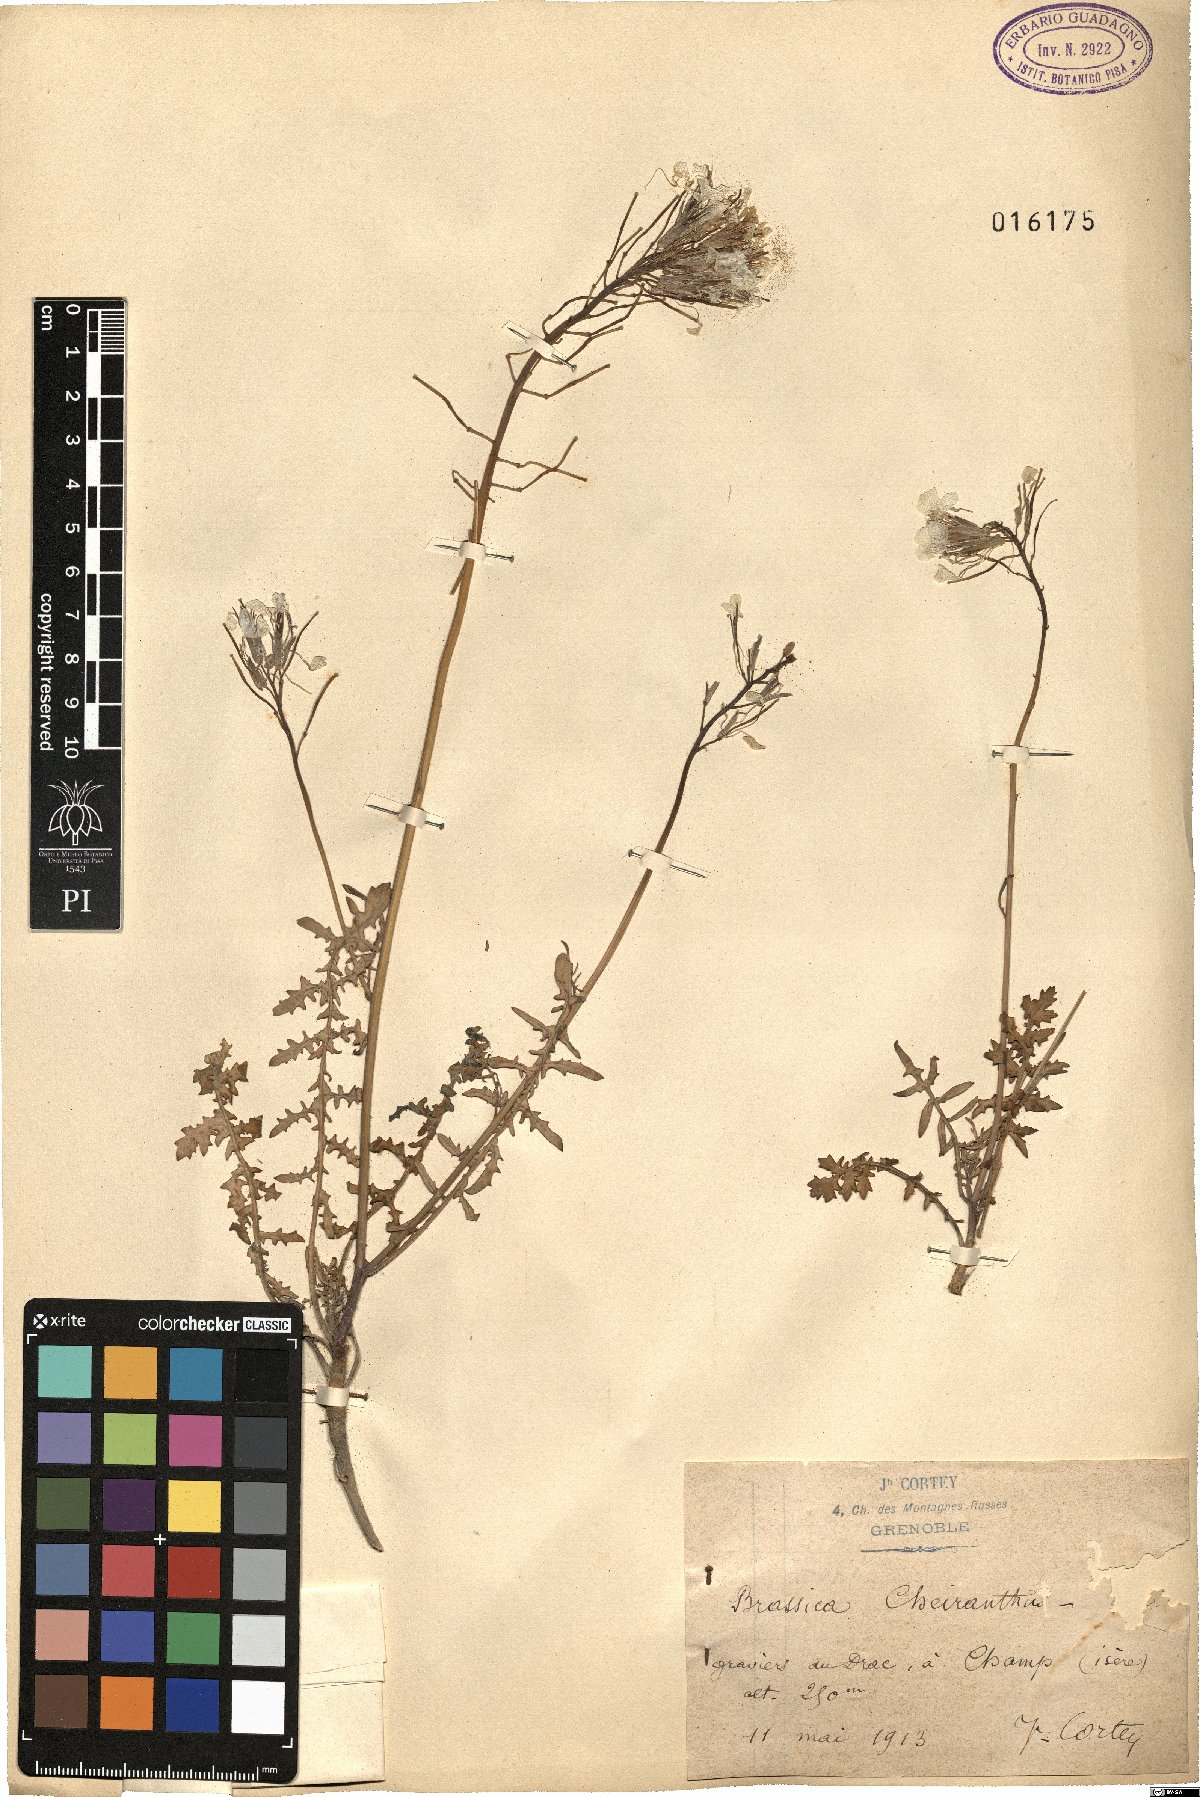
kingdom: Plantae
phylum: Tracheophyta
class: Magnoliopsida
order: Brassicales
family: Brassicaceae
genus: Coincya
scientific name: Coincya monensis
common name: Star-mustard
